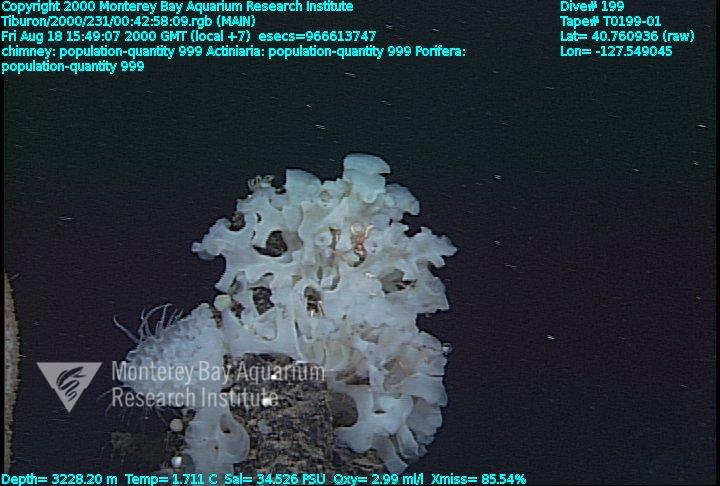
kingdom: Animalia
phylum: Porifera
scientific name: Porifera
